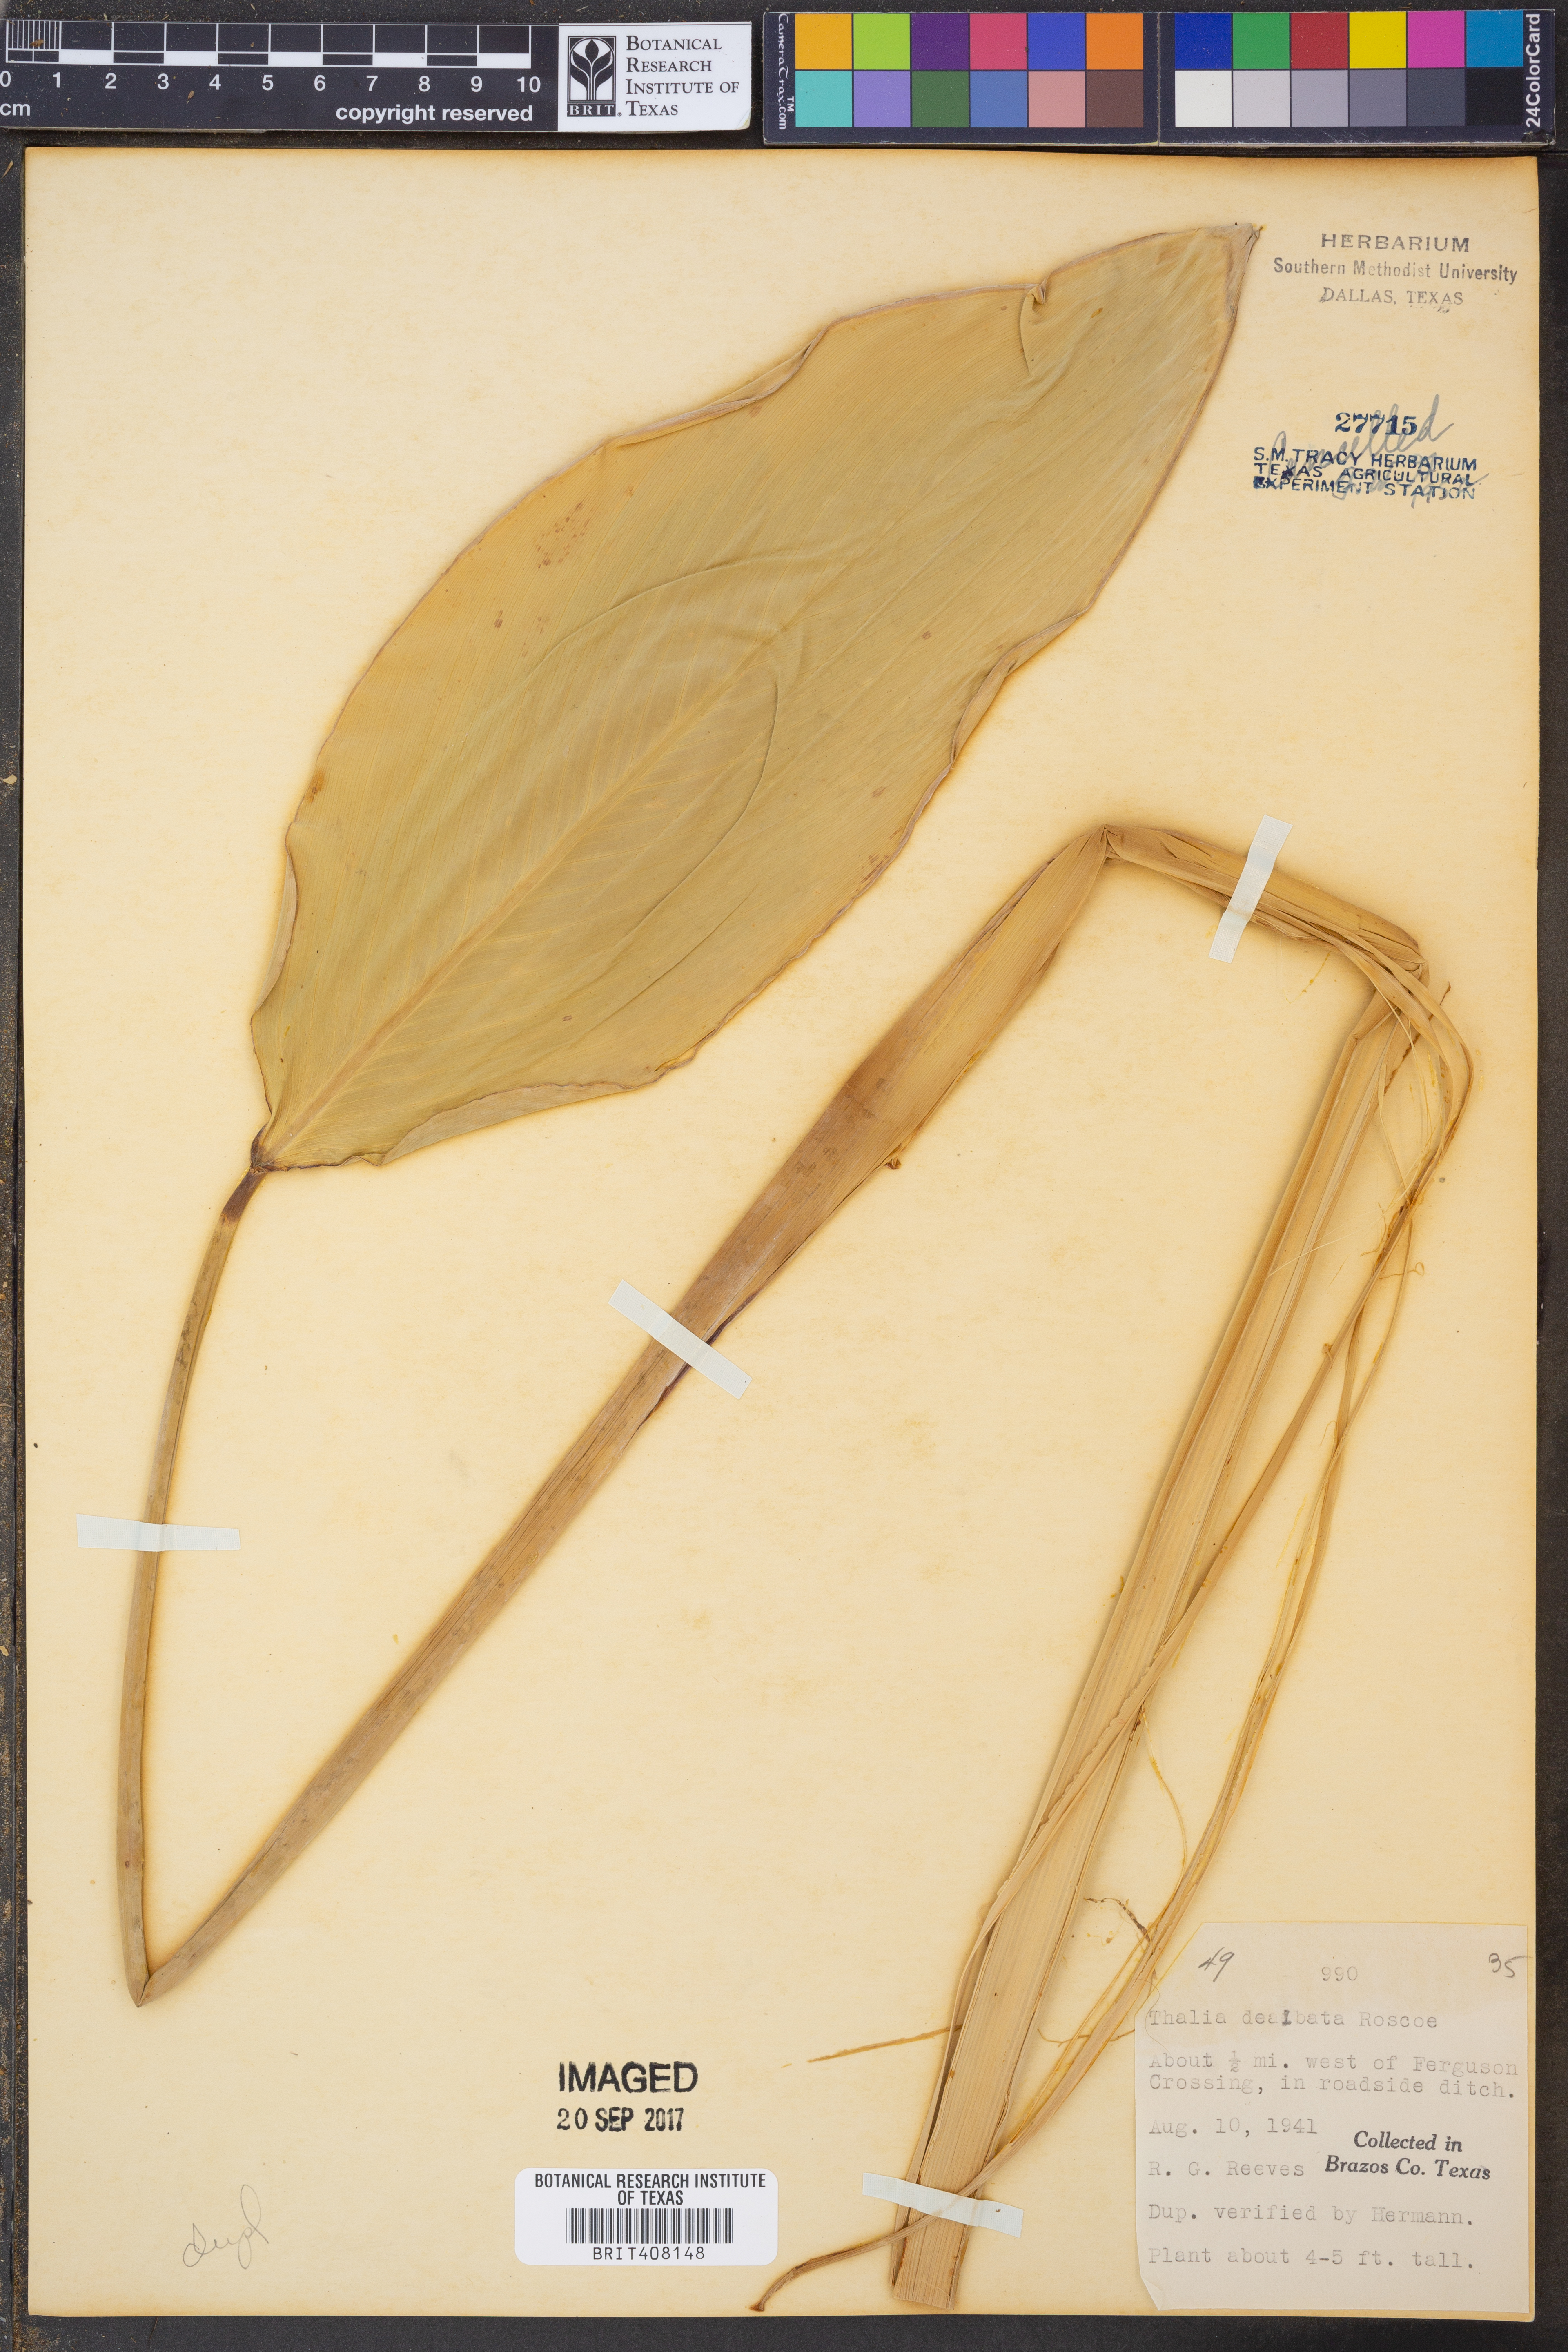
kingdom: Plantae
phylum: Tracheophyta
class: Liliopsida
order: Zingiberales
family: Marantaceae
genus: Thalia
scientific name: Thalia dealbata
